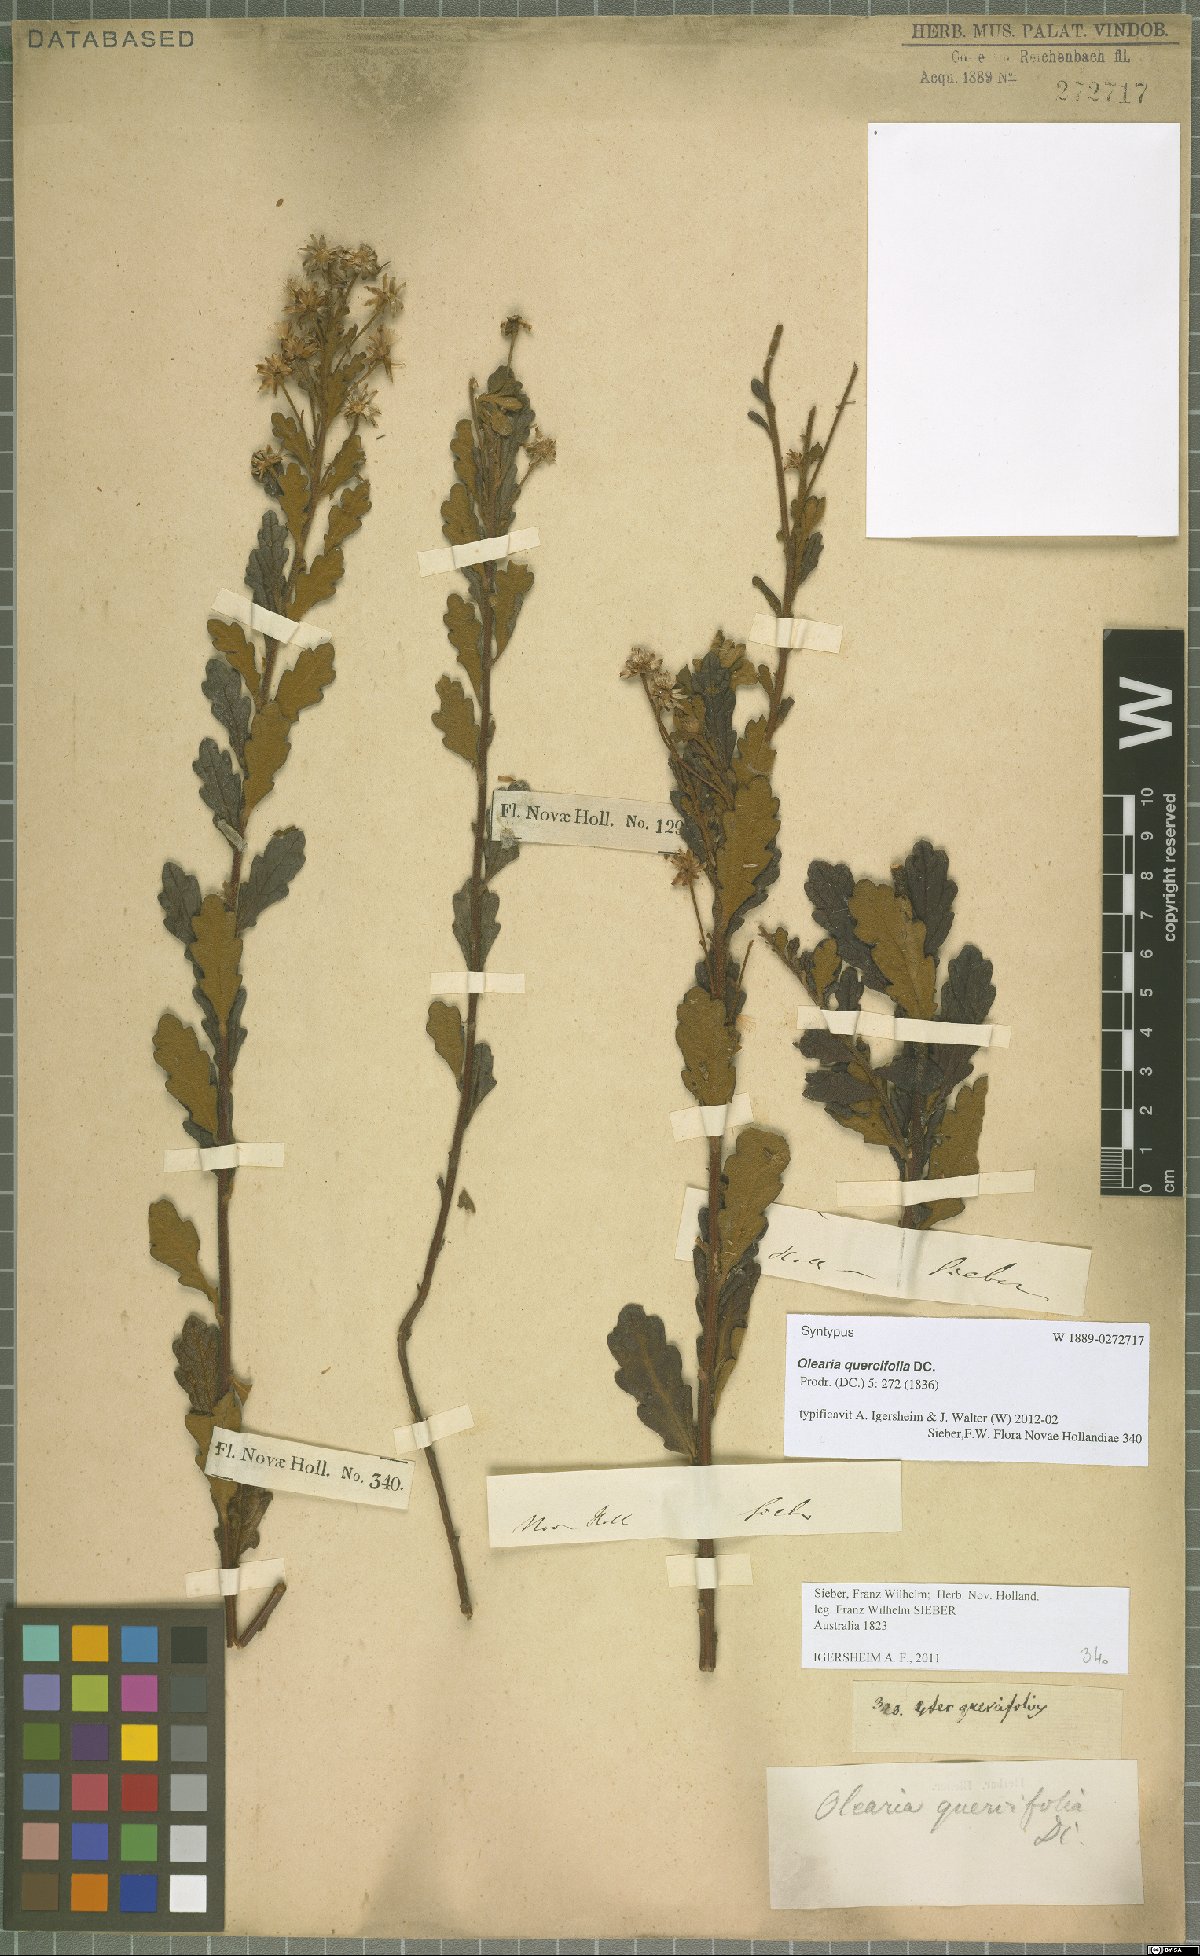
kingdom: Plantae
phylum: Tracheophyta
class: Magnoliopsida
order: Asterales
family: Asteraceae
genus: Olearia
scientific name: Olearia quercifolia
